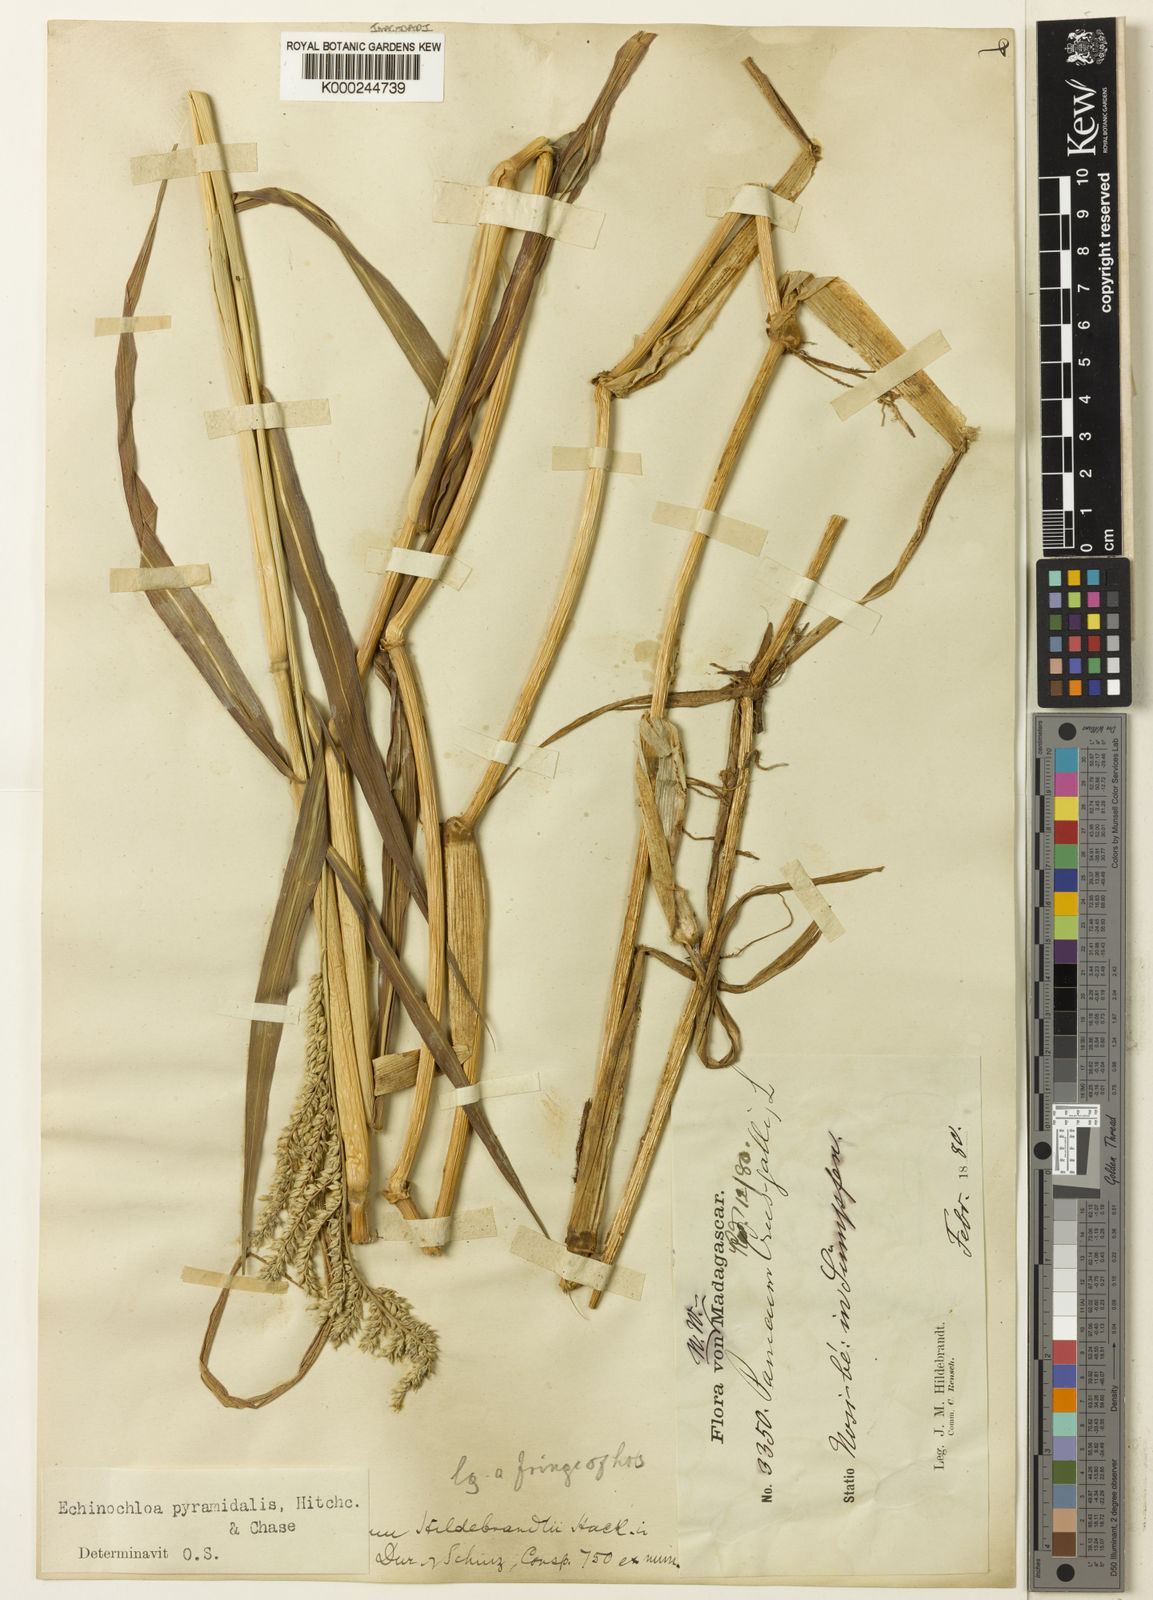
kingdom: Plantae
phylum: Tracheophyta
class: Liliopsida
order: Poales
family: Poaceae
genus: Echinochloa
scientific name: Echinochloa pyramidalis
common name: Antelope grass
